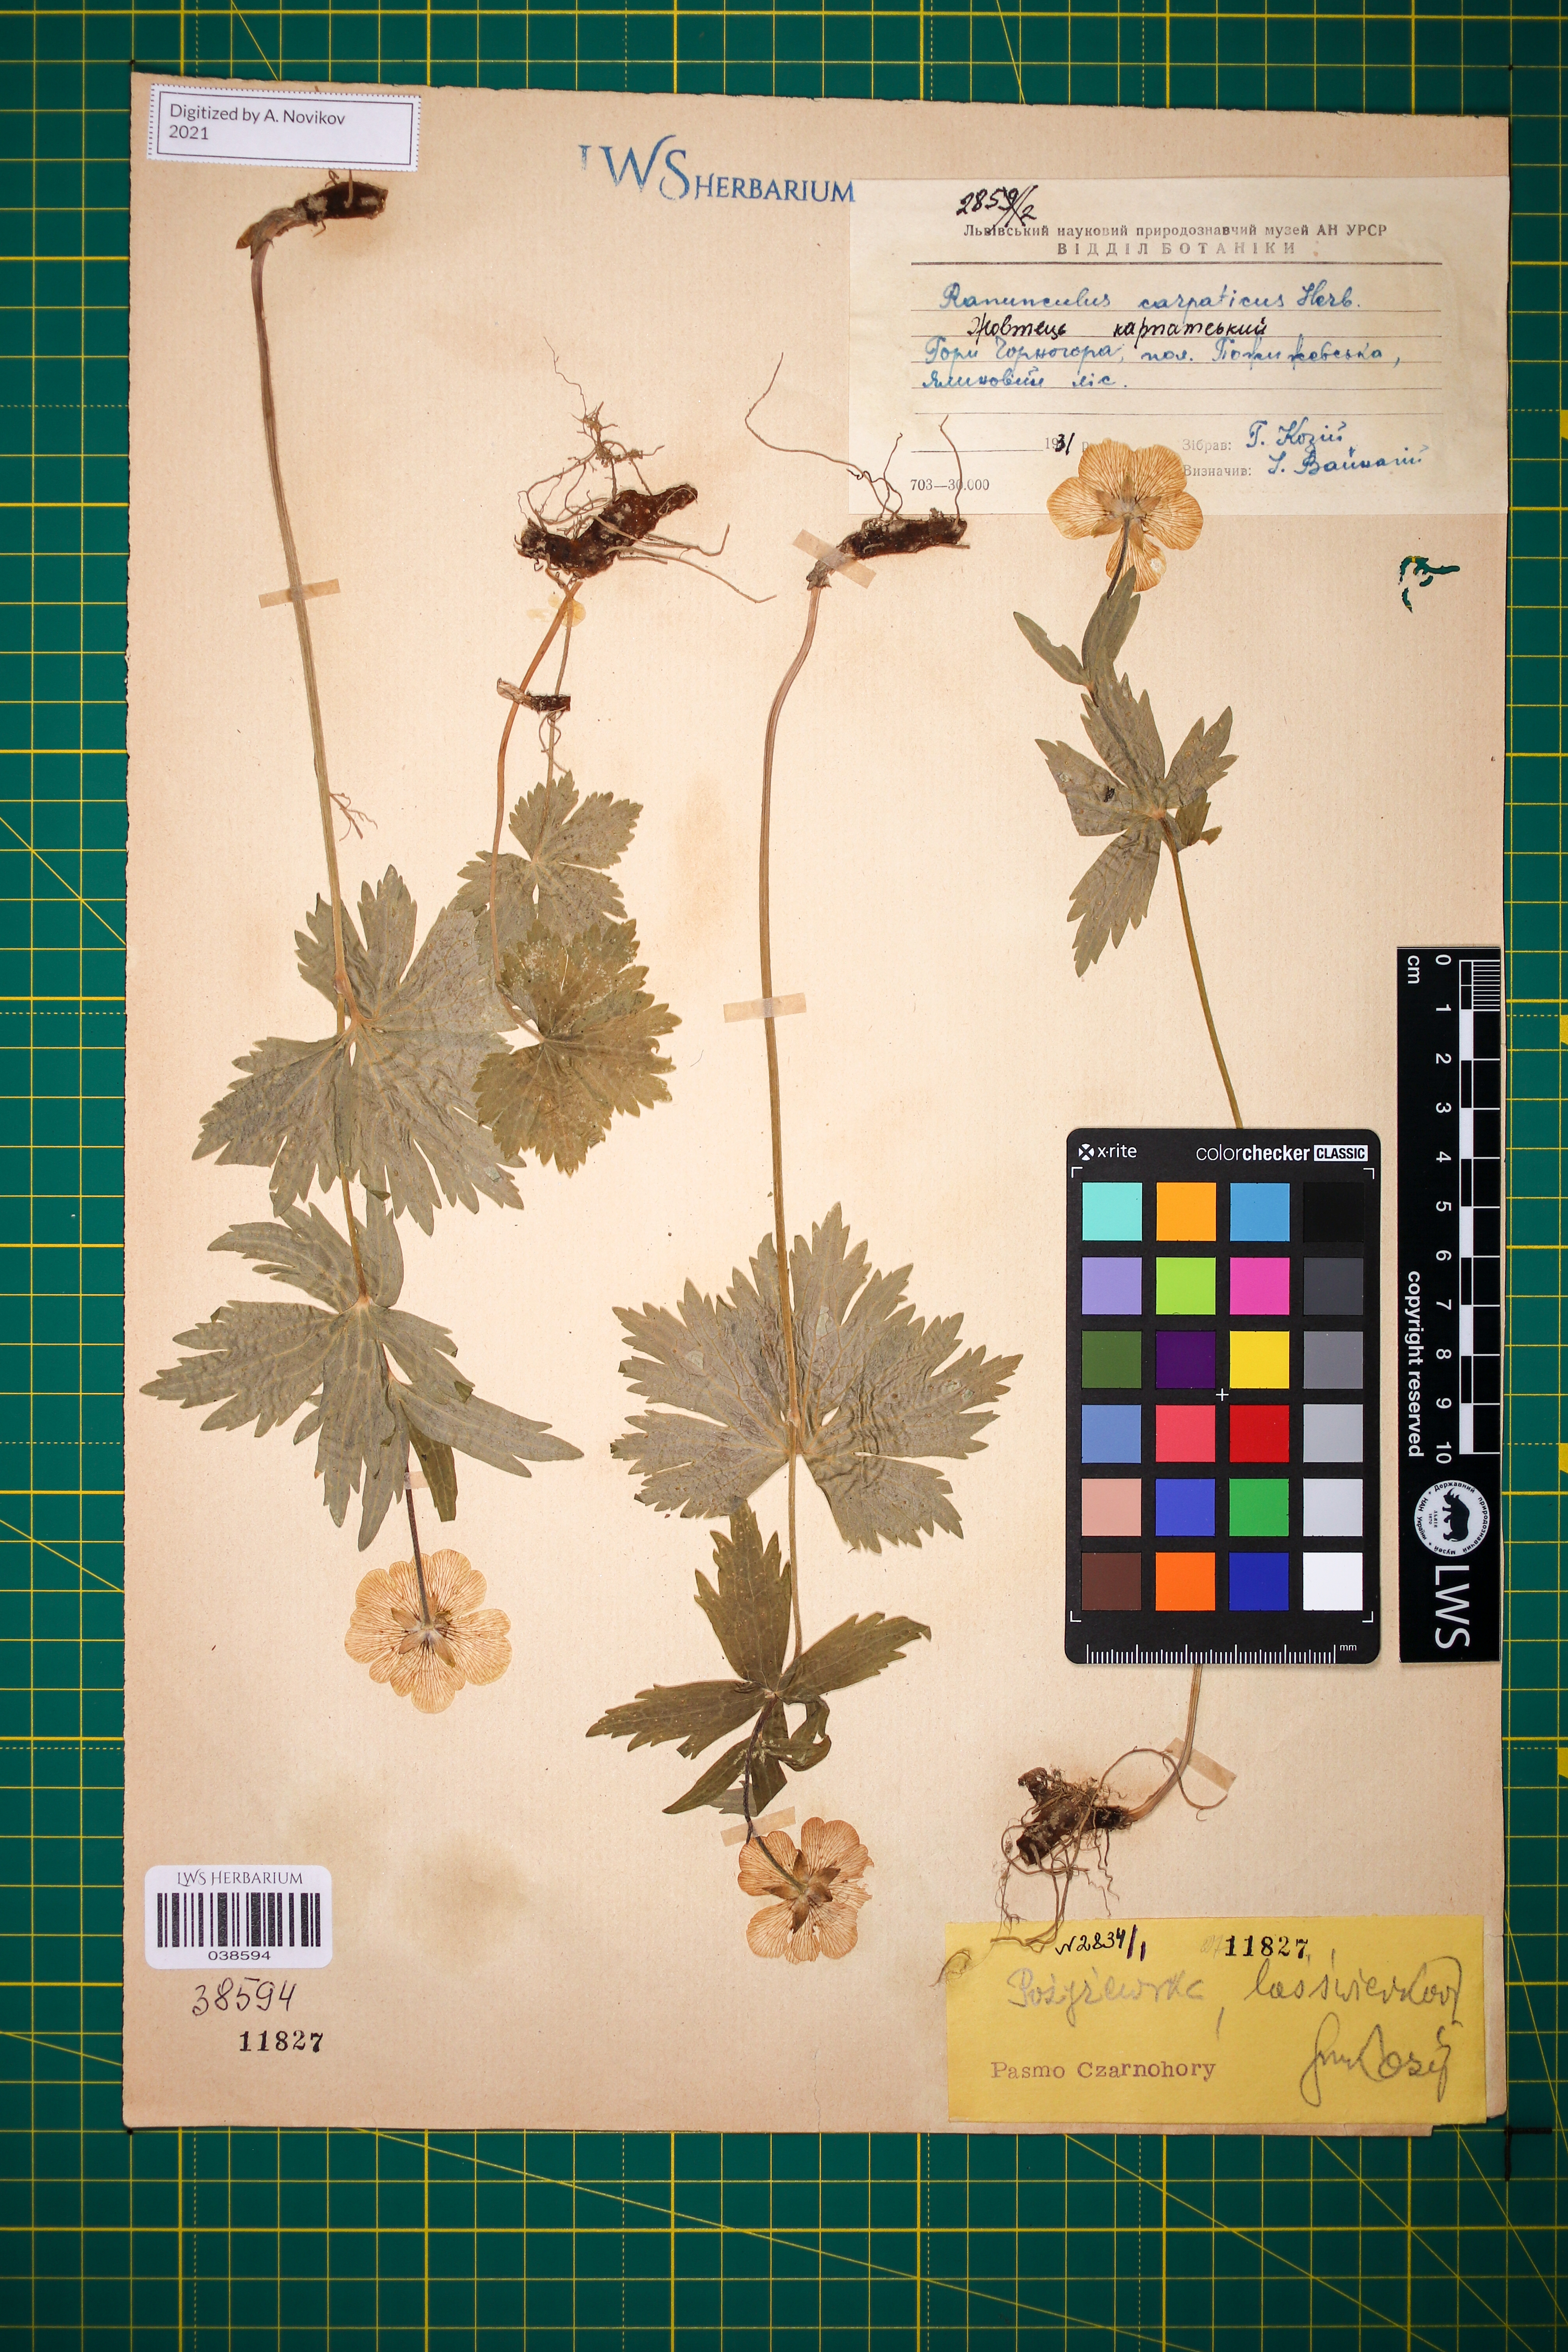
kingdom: Plantae
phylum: Tracheophyta
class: Magnoliopsida
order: Ranunculales
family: Ranunculaceae
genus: Ranunculus
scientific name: Ranunculus carpaticus
